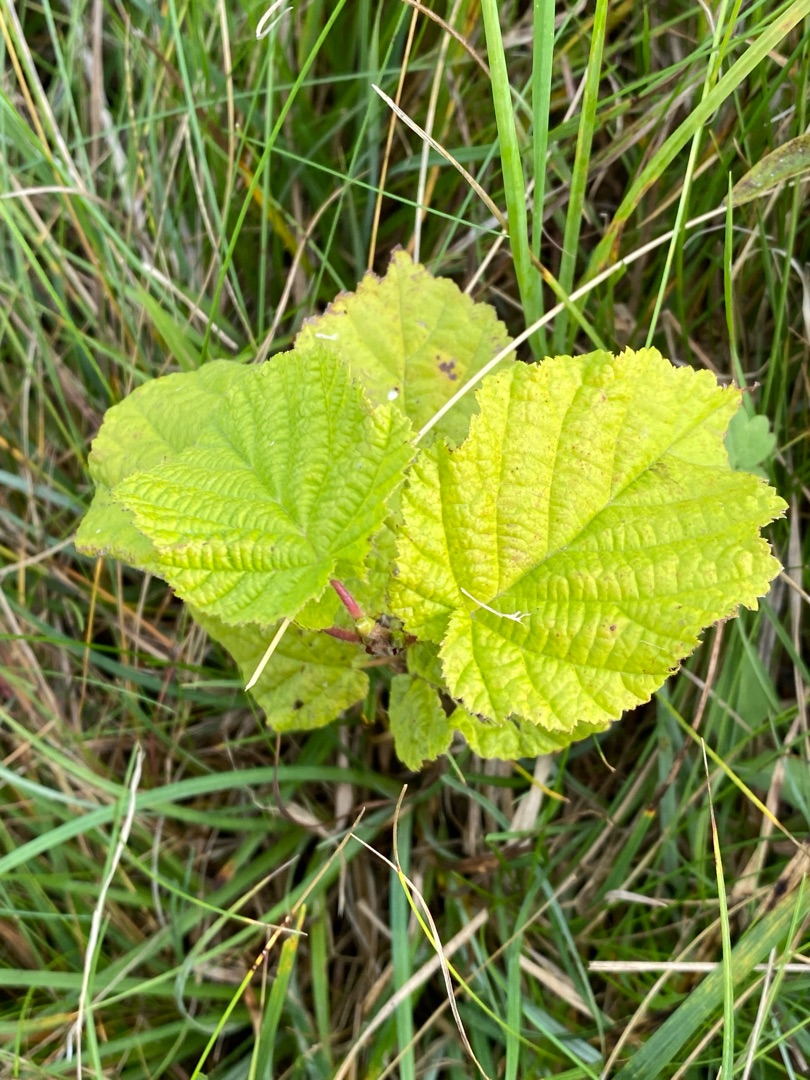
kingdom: Plantae
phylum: Tracheophyta
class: Magnoliopsida
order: Fagales
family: Betulaceae
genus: Corylus
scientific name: Corylus avellana
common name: Hassel
